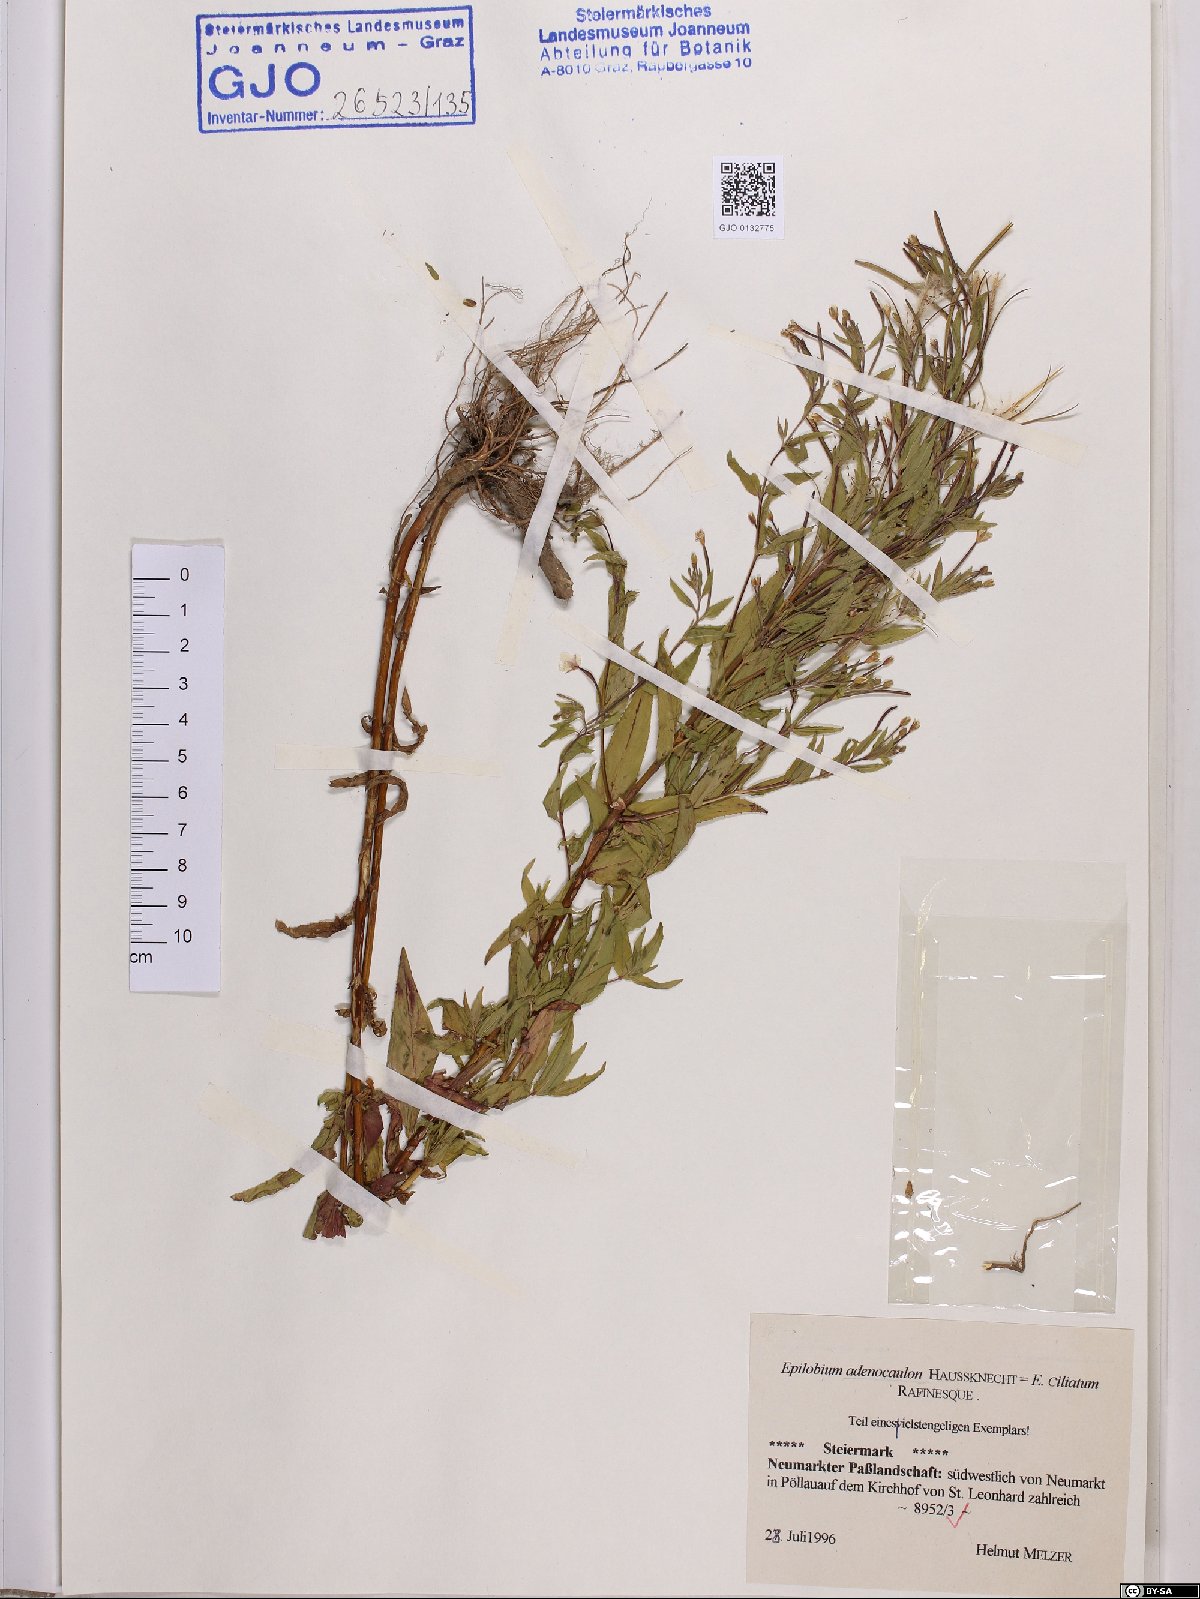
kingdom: Plantae
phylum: Tracheophyta
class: Magnoliopsida
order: Myrtales
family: Onagraceae
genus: Epilobium
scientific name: Epilobium ciliatum
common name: American willowherb
